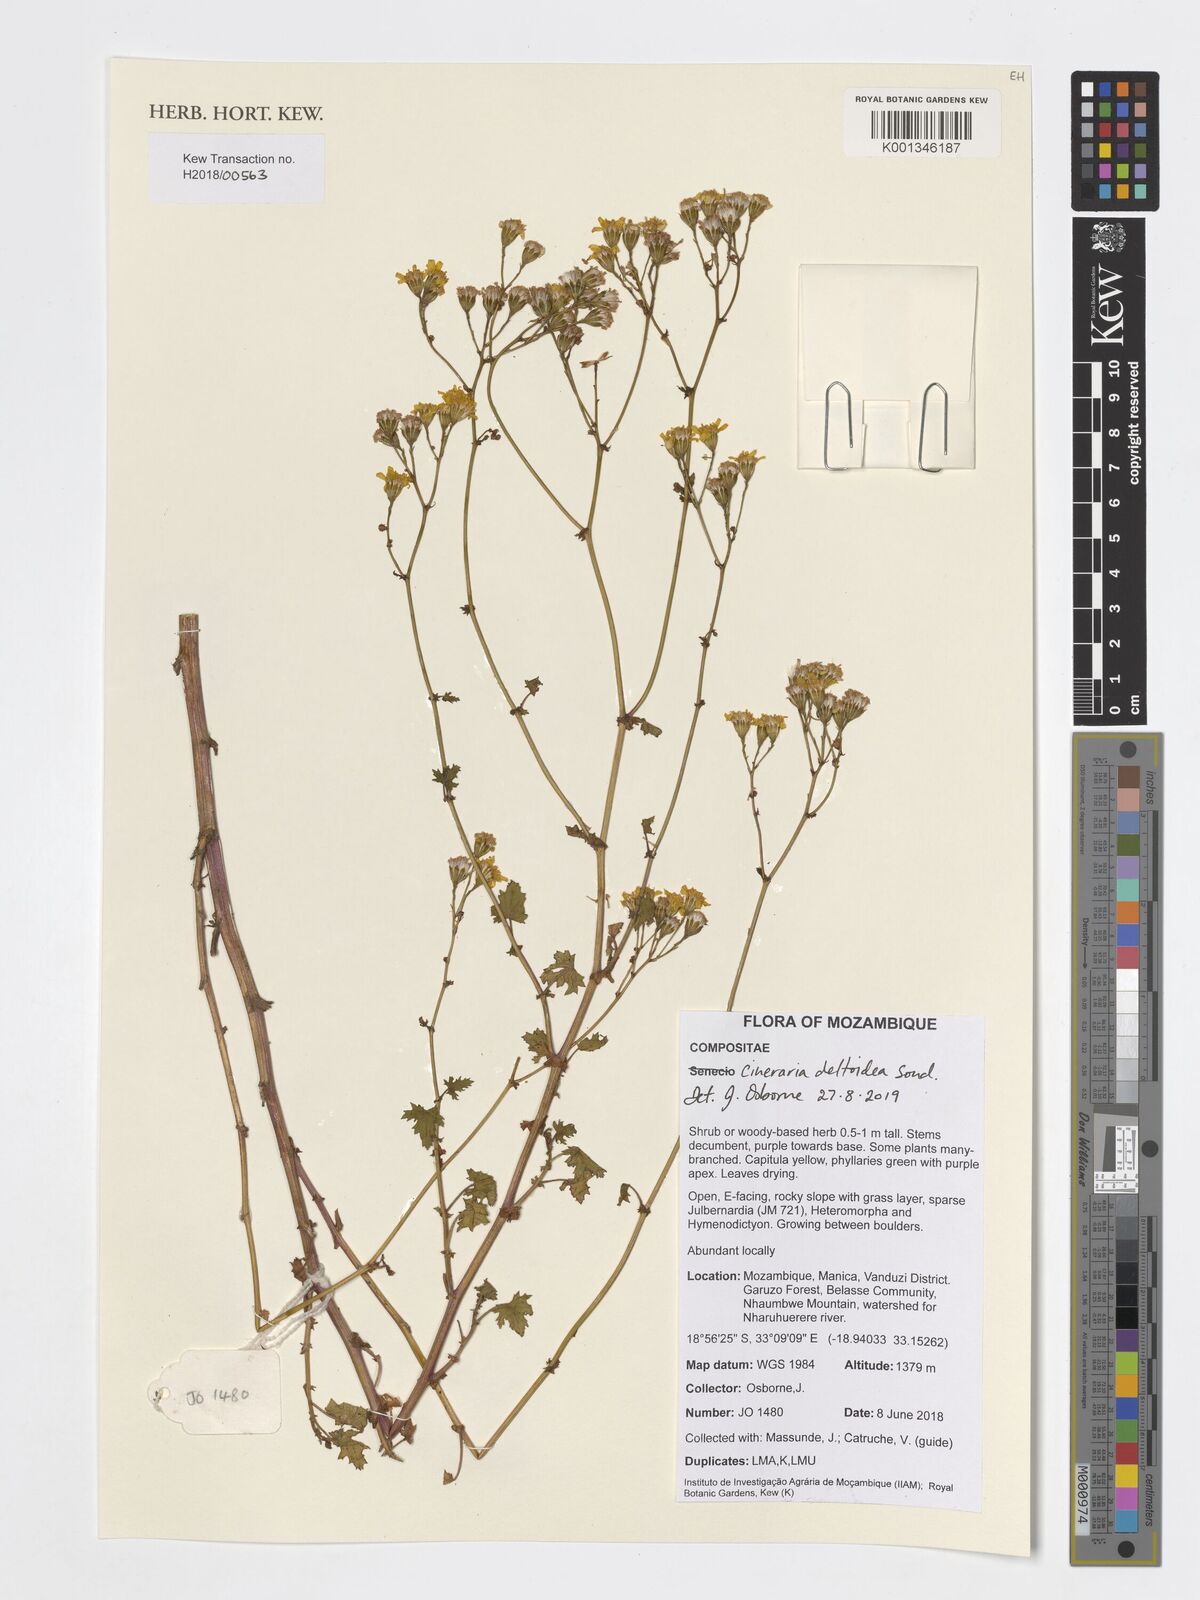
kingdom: Plantae
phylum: Tracheophyta
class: Magnoliopsida
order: Asterales
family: Asteraceae
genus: Cineraria
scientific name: Cineraria deltoidea
